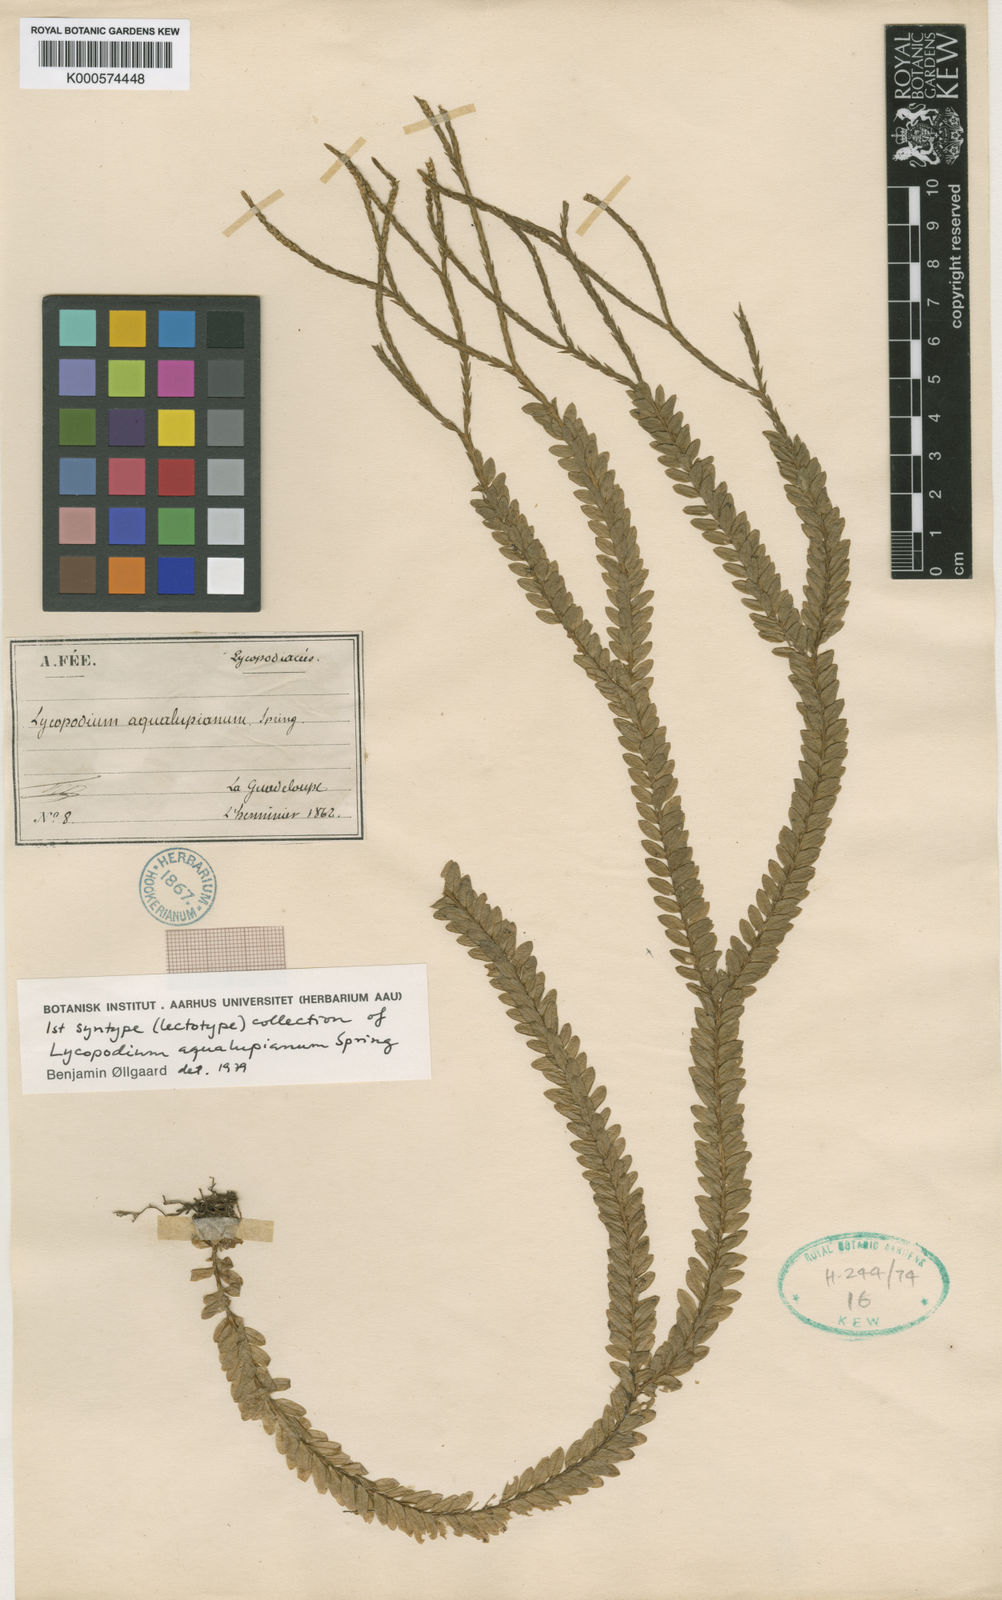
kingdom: Plantae
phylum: Tracheophyta
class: Lycopodiopsida
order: Lycopodiales
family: Lycopodiaceae
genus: Phlegmariurus
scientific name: Phlegmariurus aqualupianus
